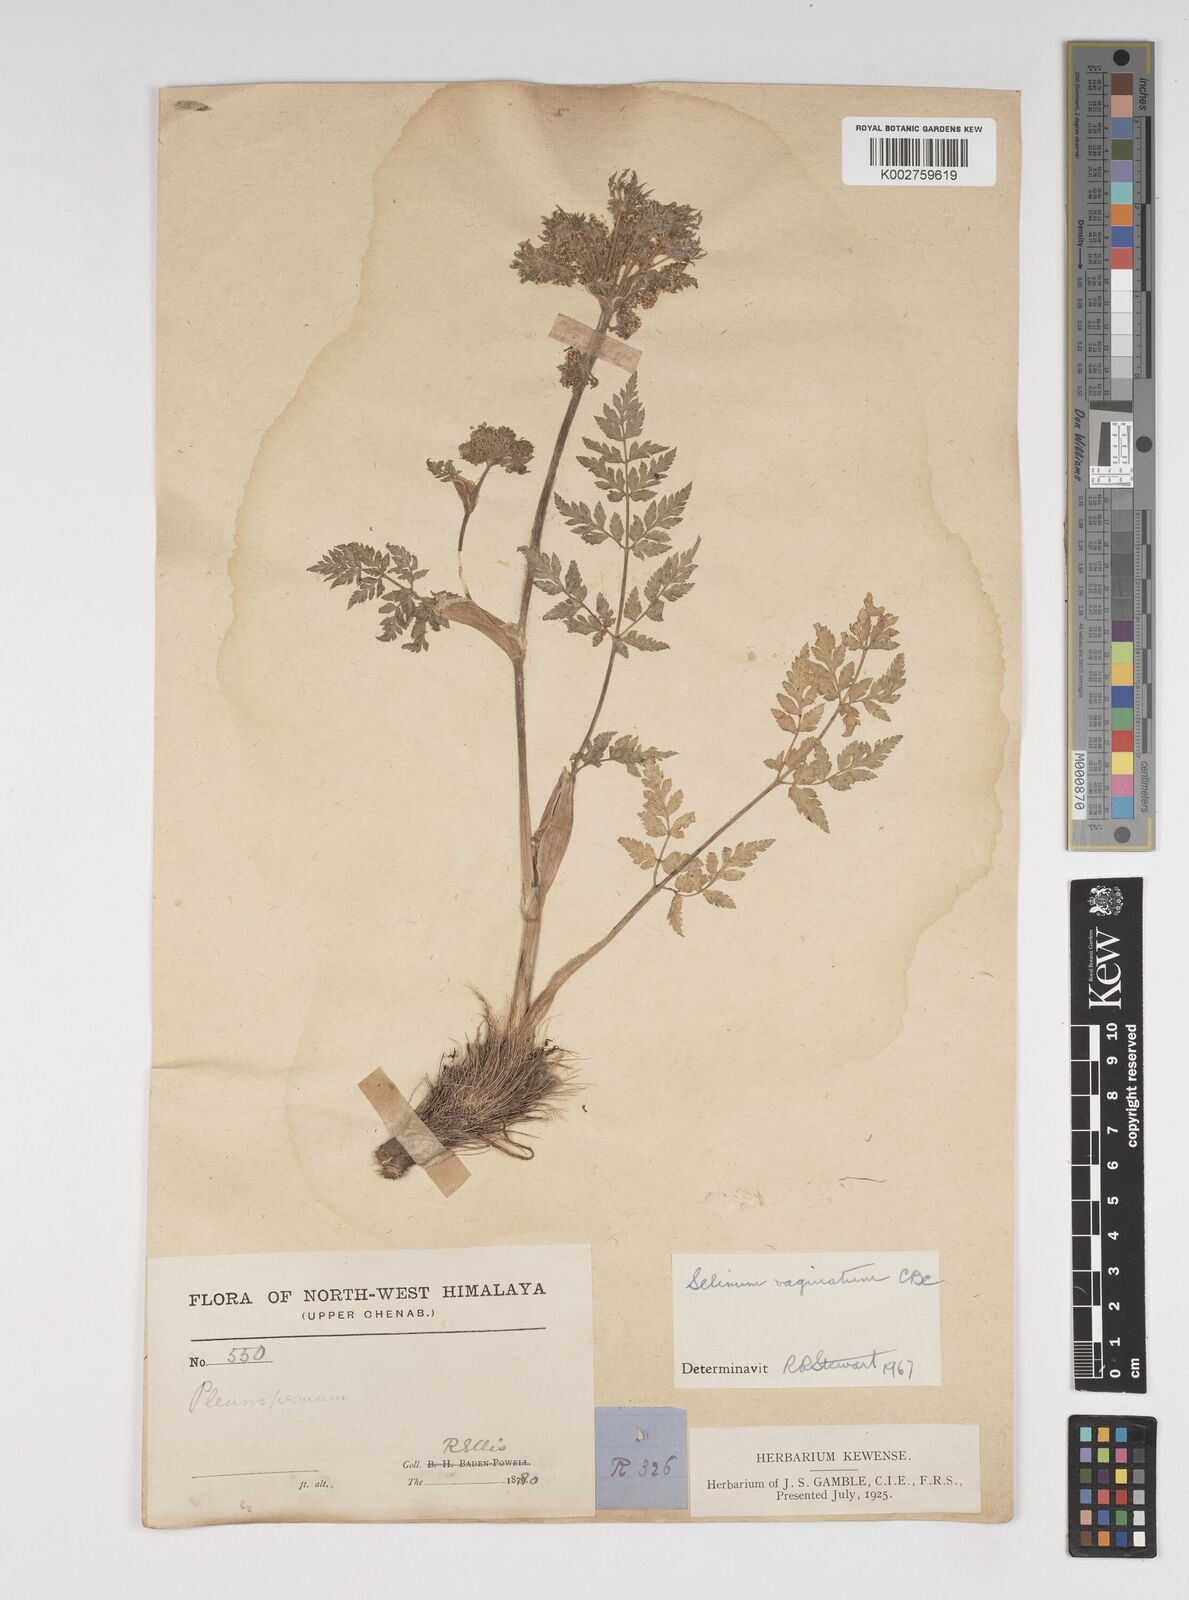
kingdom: Plantae
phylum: Tracheophyta
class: Magnoliopsida
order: Apiales
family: Apiaceae
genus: Selinum
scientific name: Selinum vaginatum
